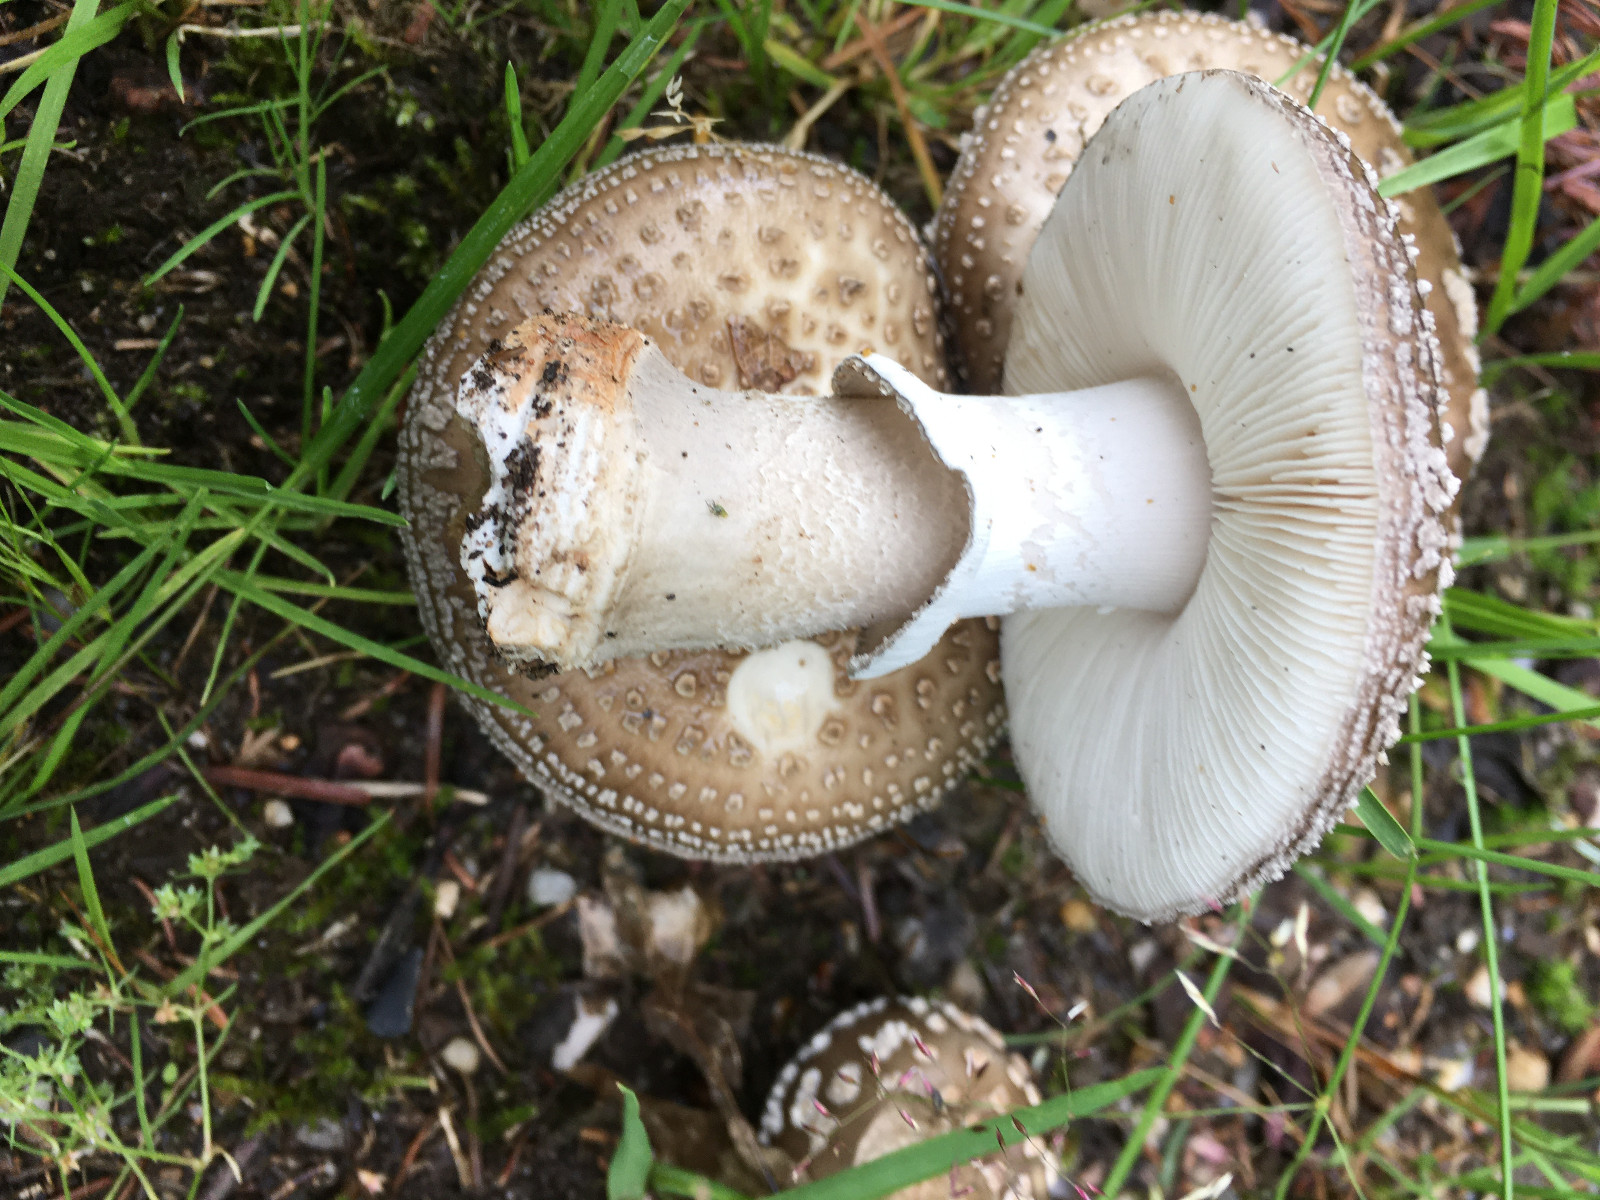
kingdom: Fungi
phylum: Basidiomycota
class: Agaricomycetes
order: Agaricales
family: Amanitaceae
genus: Amanita
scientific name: Amanita
